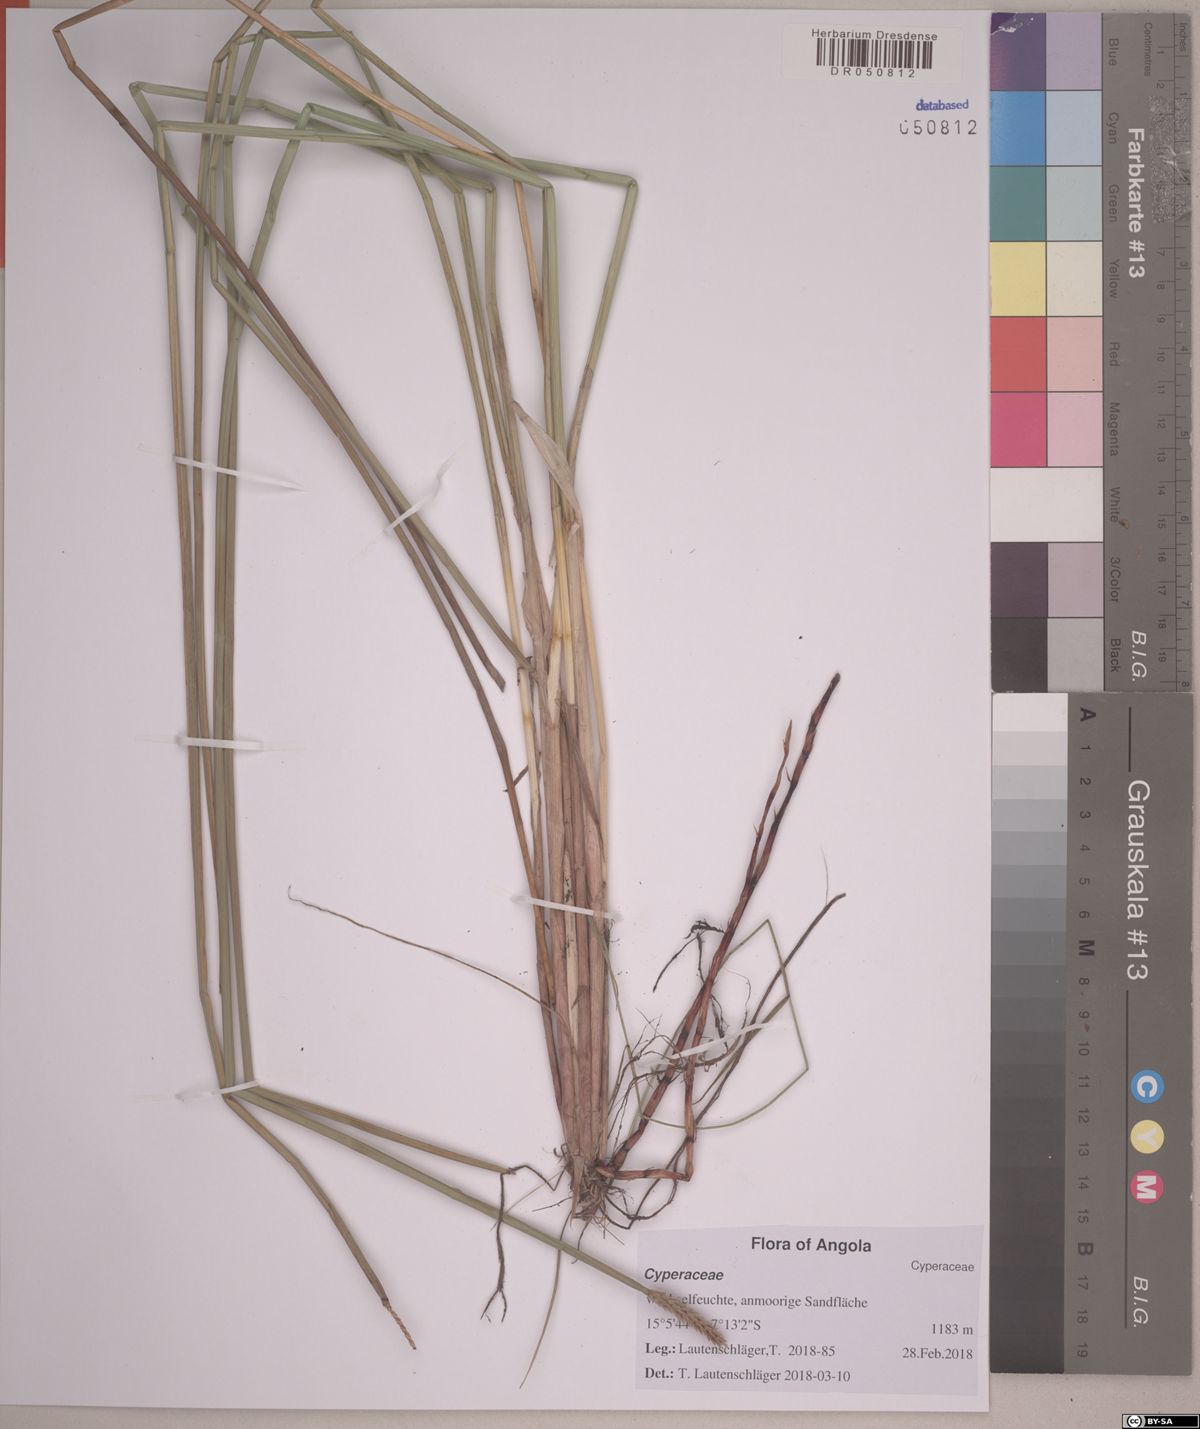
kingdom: Plantae
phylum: Tracheophyta
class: Liliopsida
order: Poales
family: Cyperaceae
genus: Eleocharis
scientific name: Eleocharis variegata
